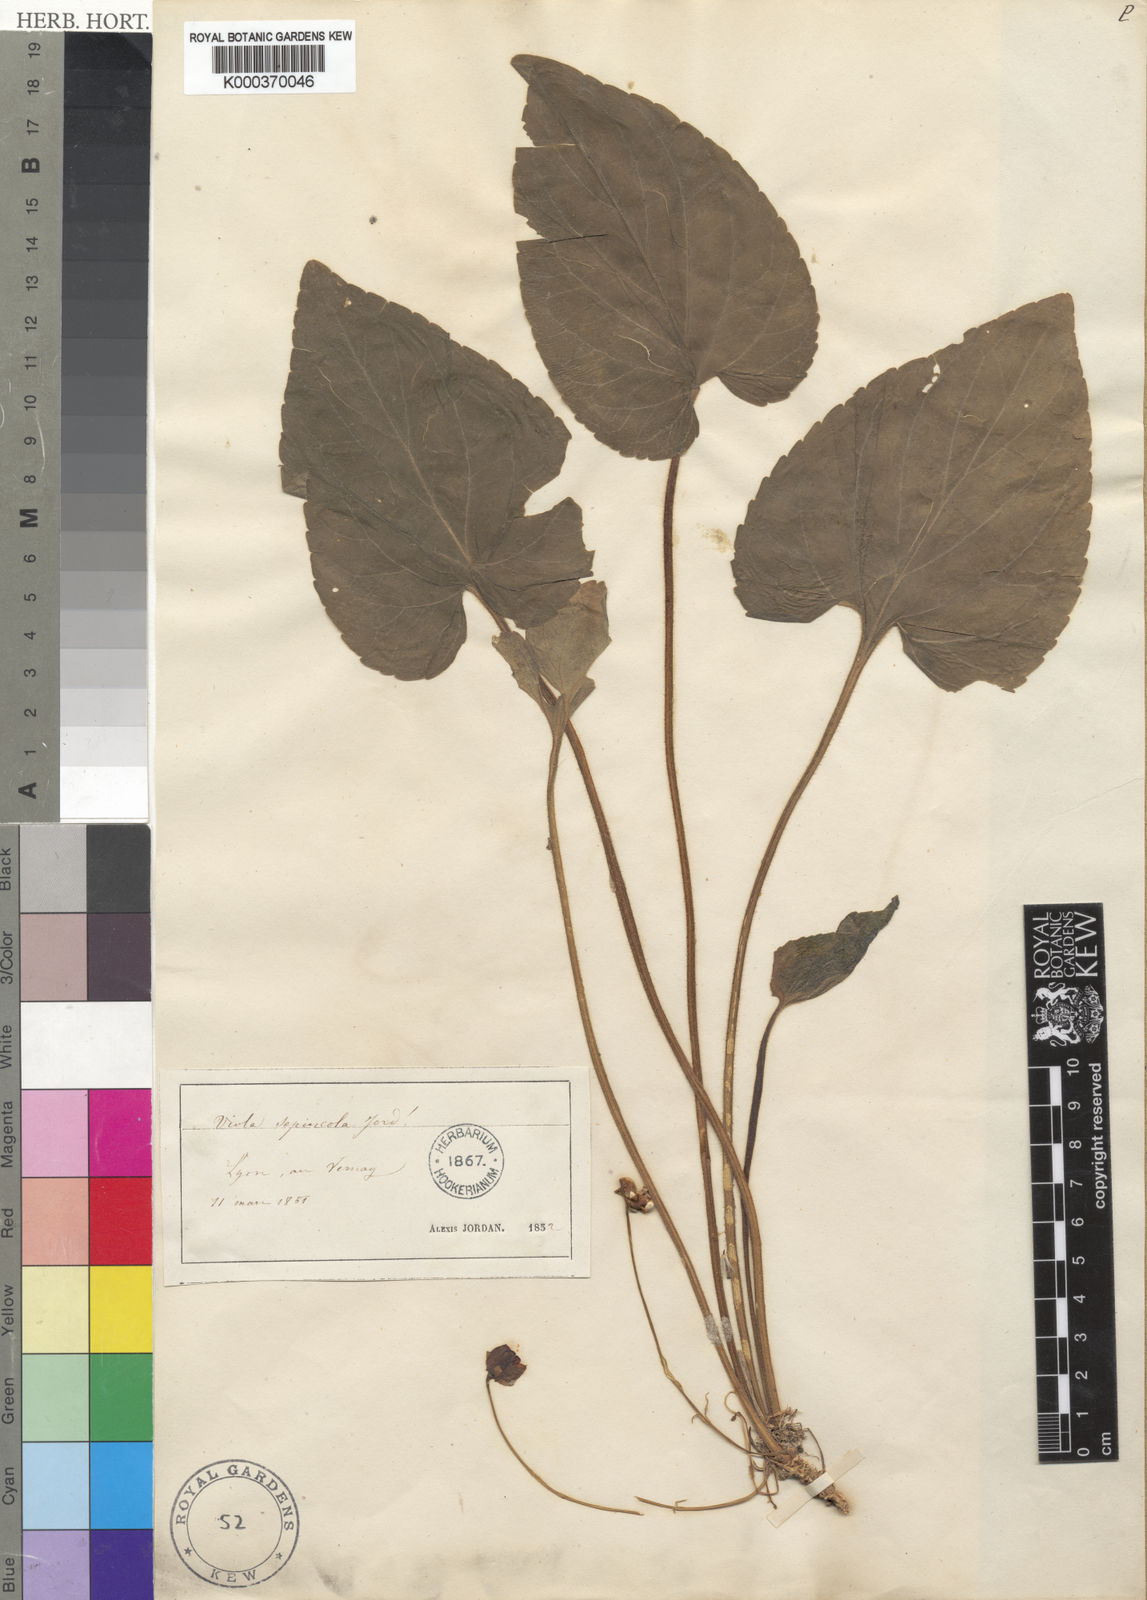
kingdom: Plantae
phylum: Tracheophyta
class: Magnoliopsida
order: Malpighiales
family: Violaceae
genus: Viola
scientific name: Viola suavis
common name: Russian violet
